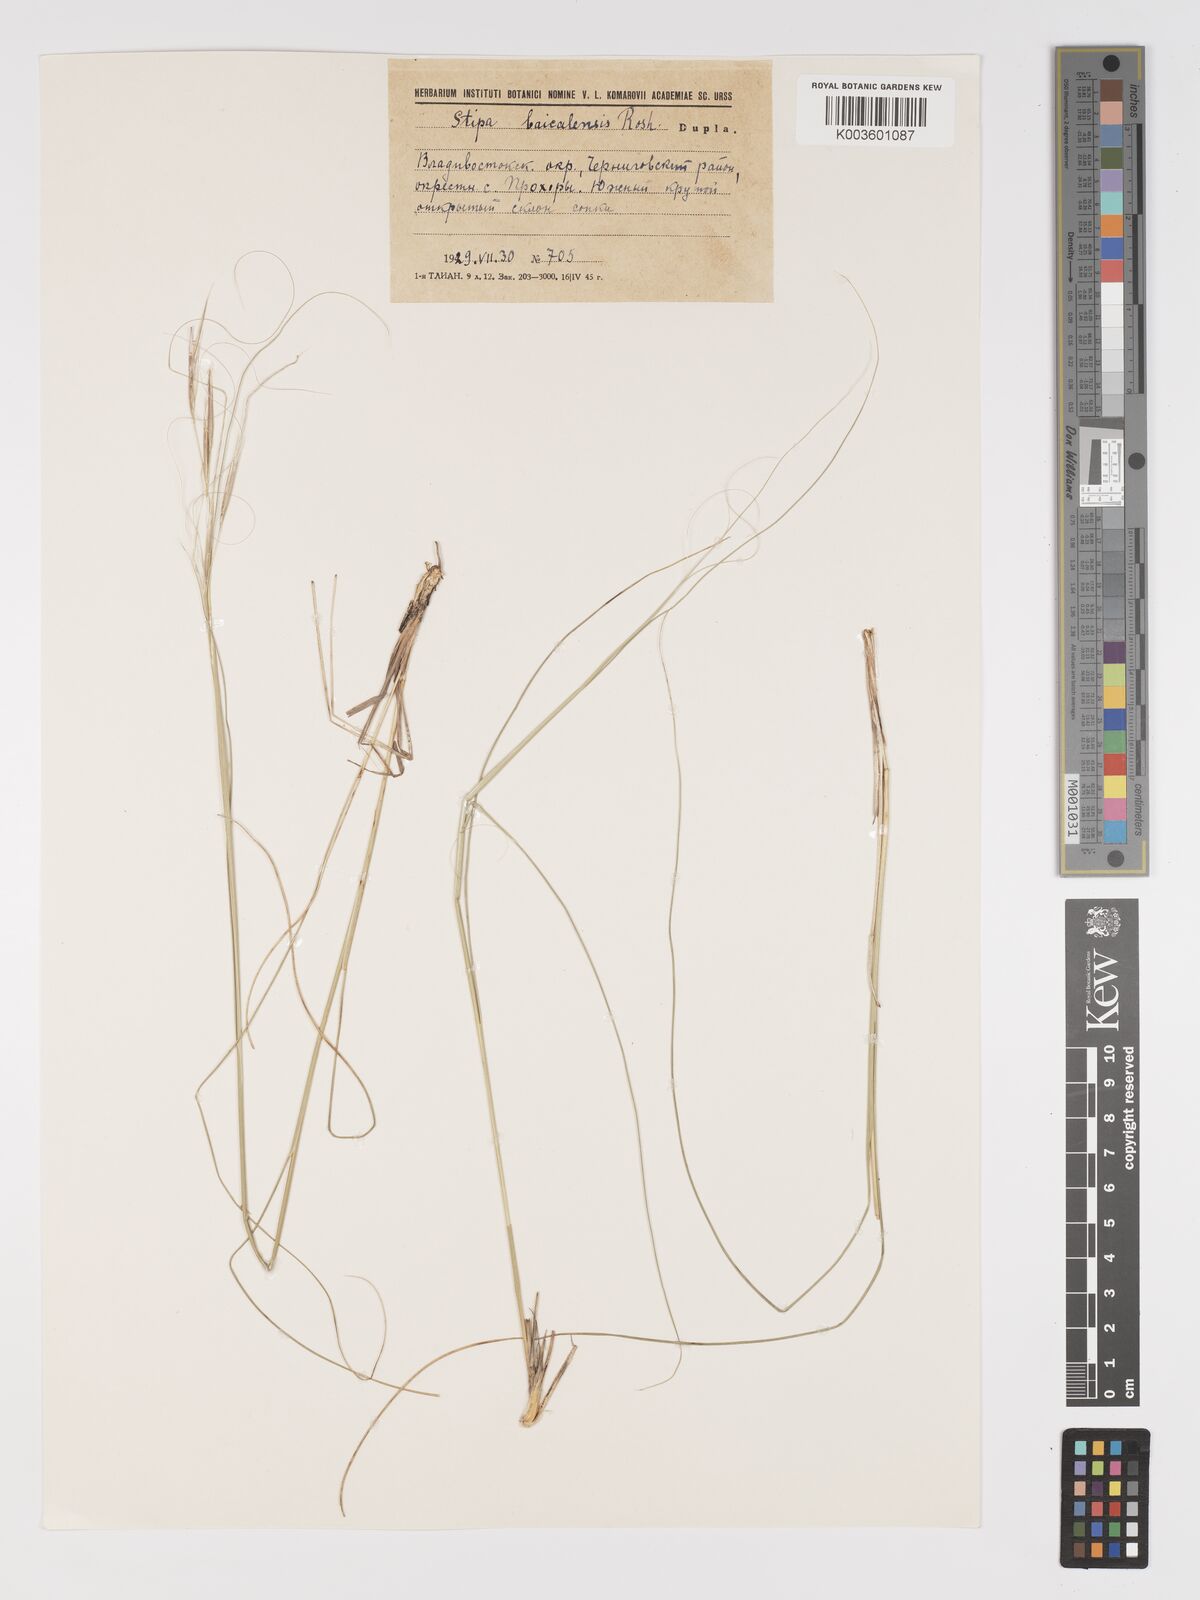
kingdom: Plantae
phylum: Tracheophyta
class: Liliopsida
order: Poales
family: Poaceae
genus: Stipa
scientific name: Stipa baicalensis
